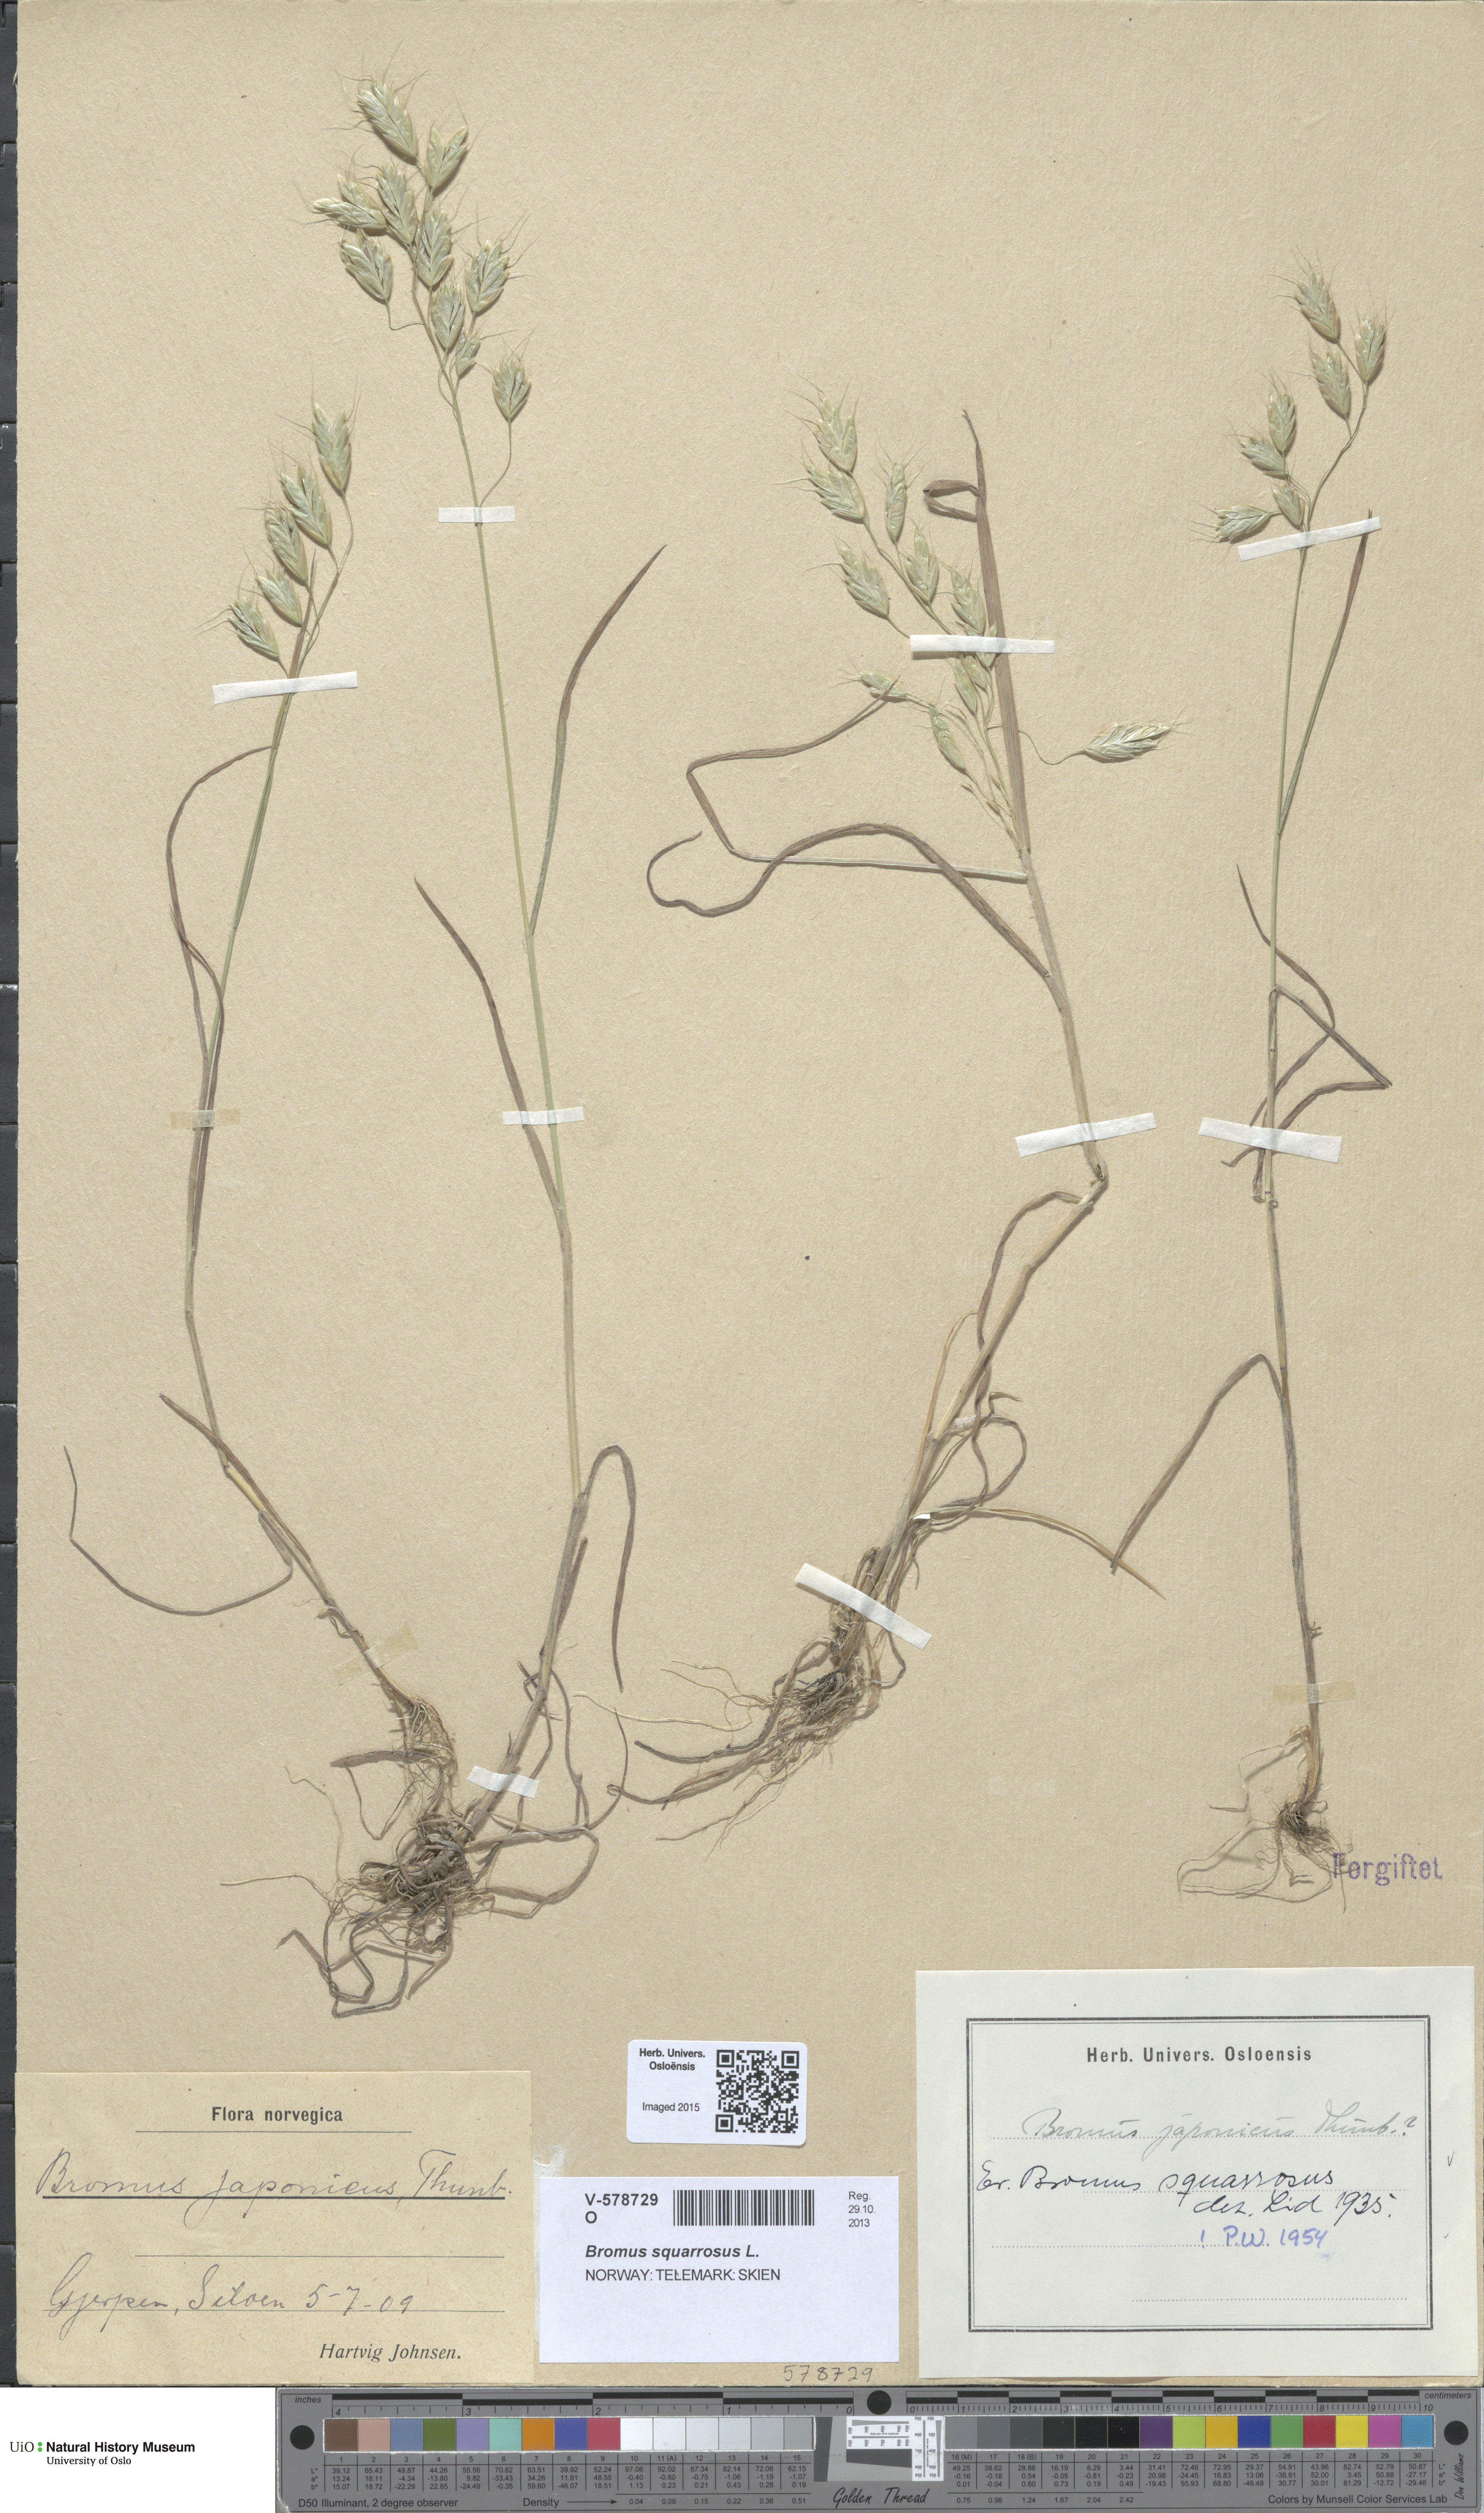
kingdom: Plantae
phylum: Tracheophyta
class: Liliopsida
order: Poales
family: Poaceae
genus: Bromus
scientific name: Bromus squarrosus
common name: Corn brome
